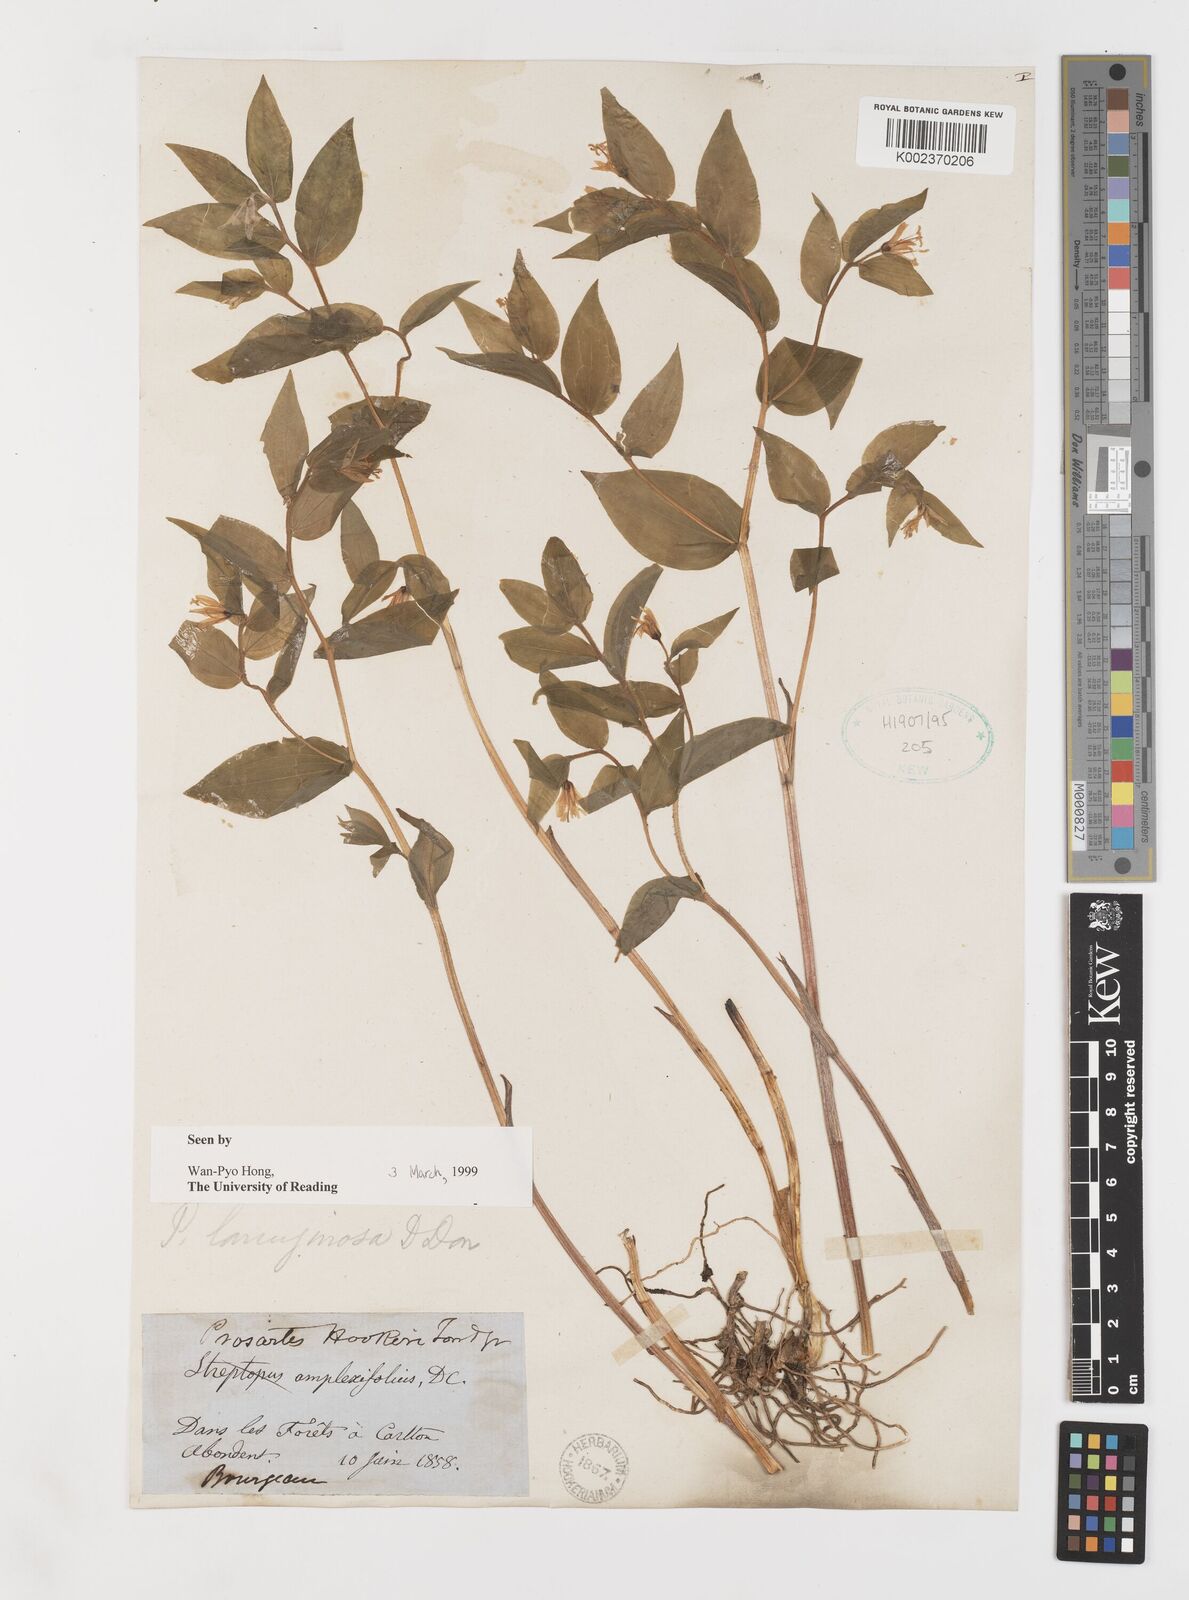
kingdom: Plantae
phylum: Tracheophyta
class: Liliopsida
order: Liliales
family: Liliaceae
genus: Prosartes
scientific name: Prosartes lanuginosa
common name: Hairy mandarin
